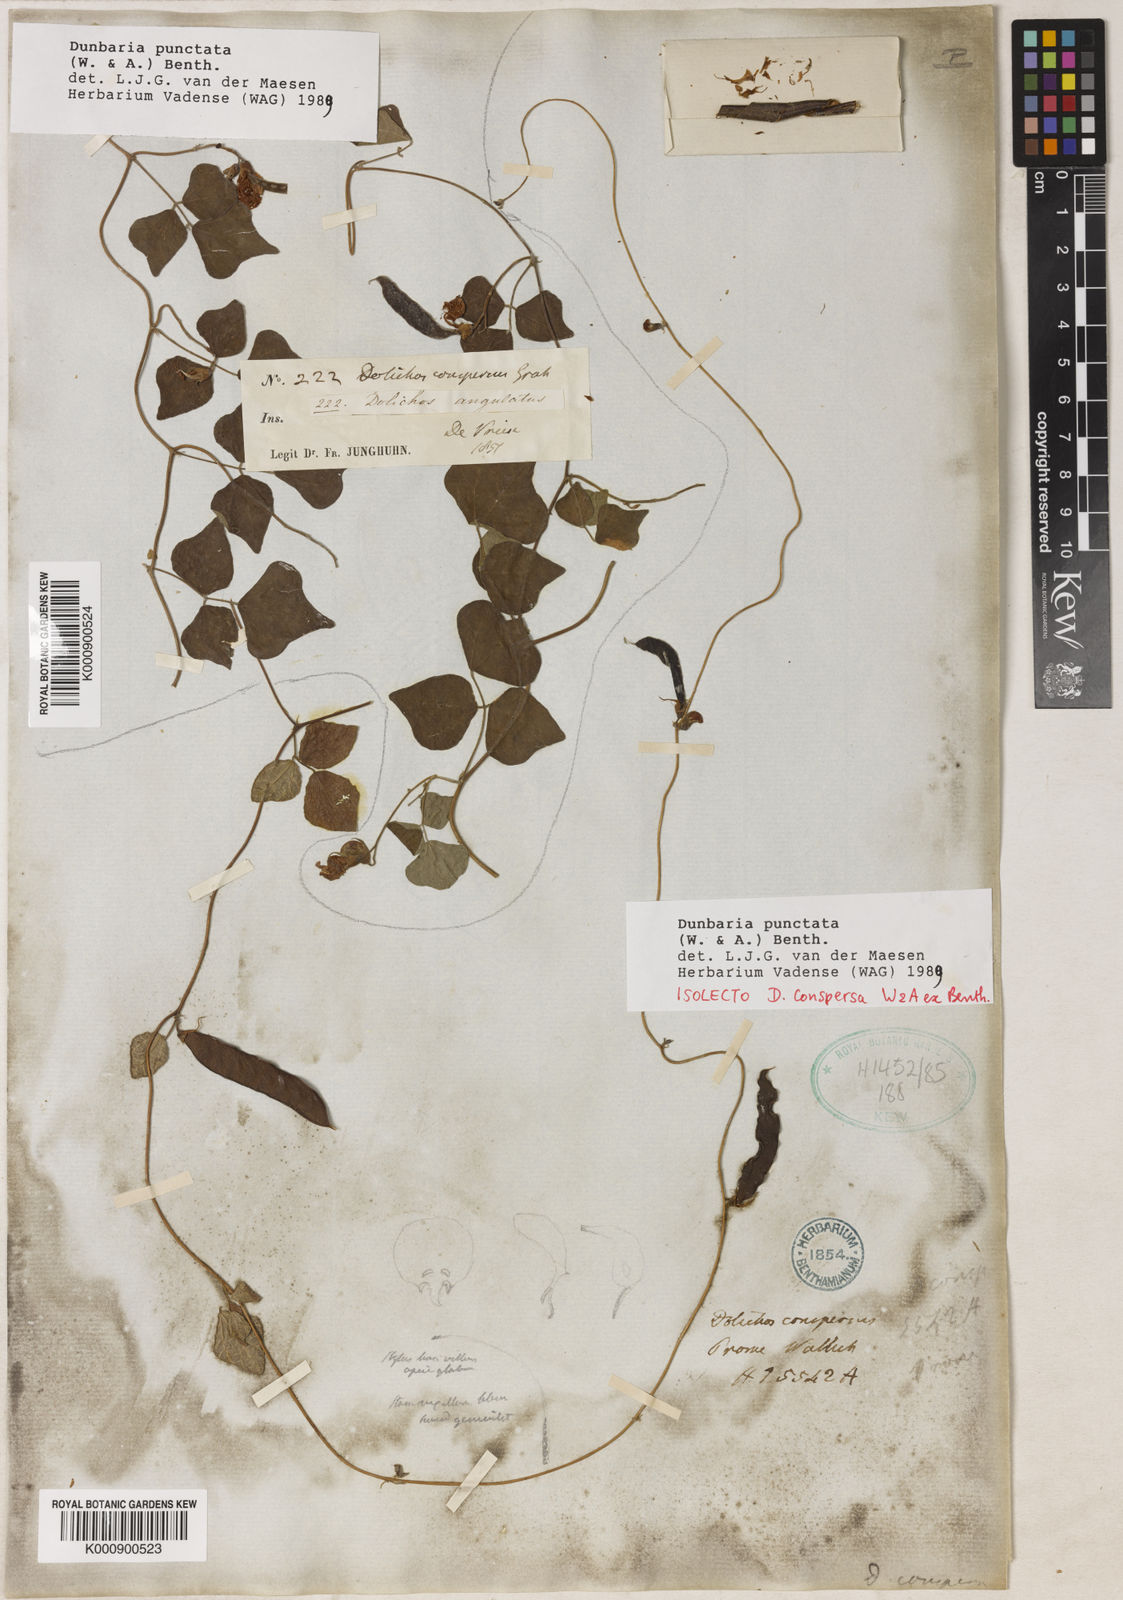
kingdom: Plantae
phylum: Tracheophyta
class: Magnoliopsida
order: Fabales
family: Fabaceae
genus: Dunbaria
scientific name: Dunbaria punctata
